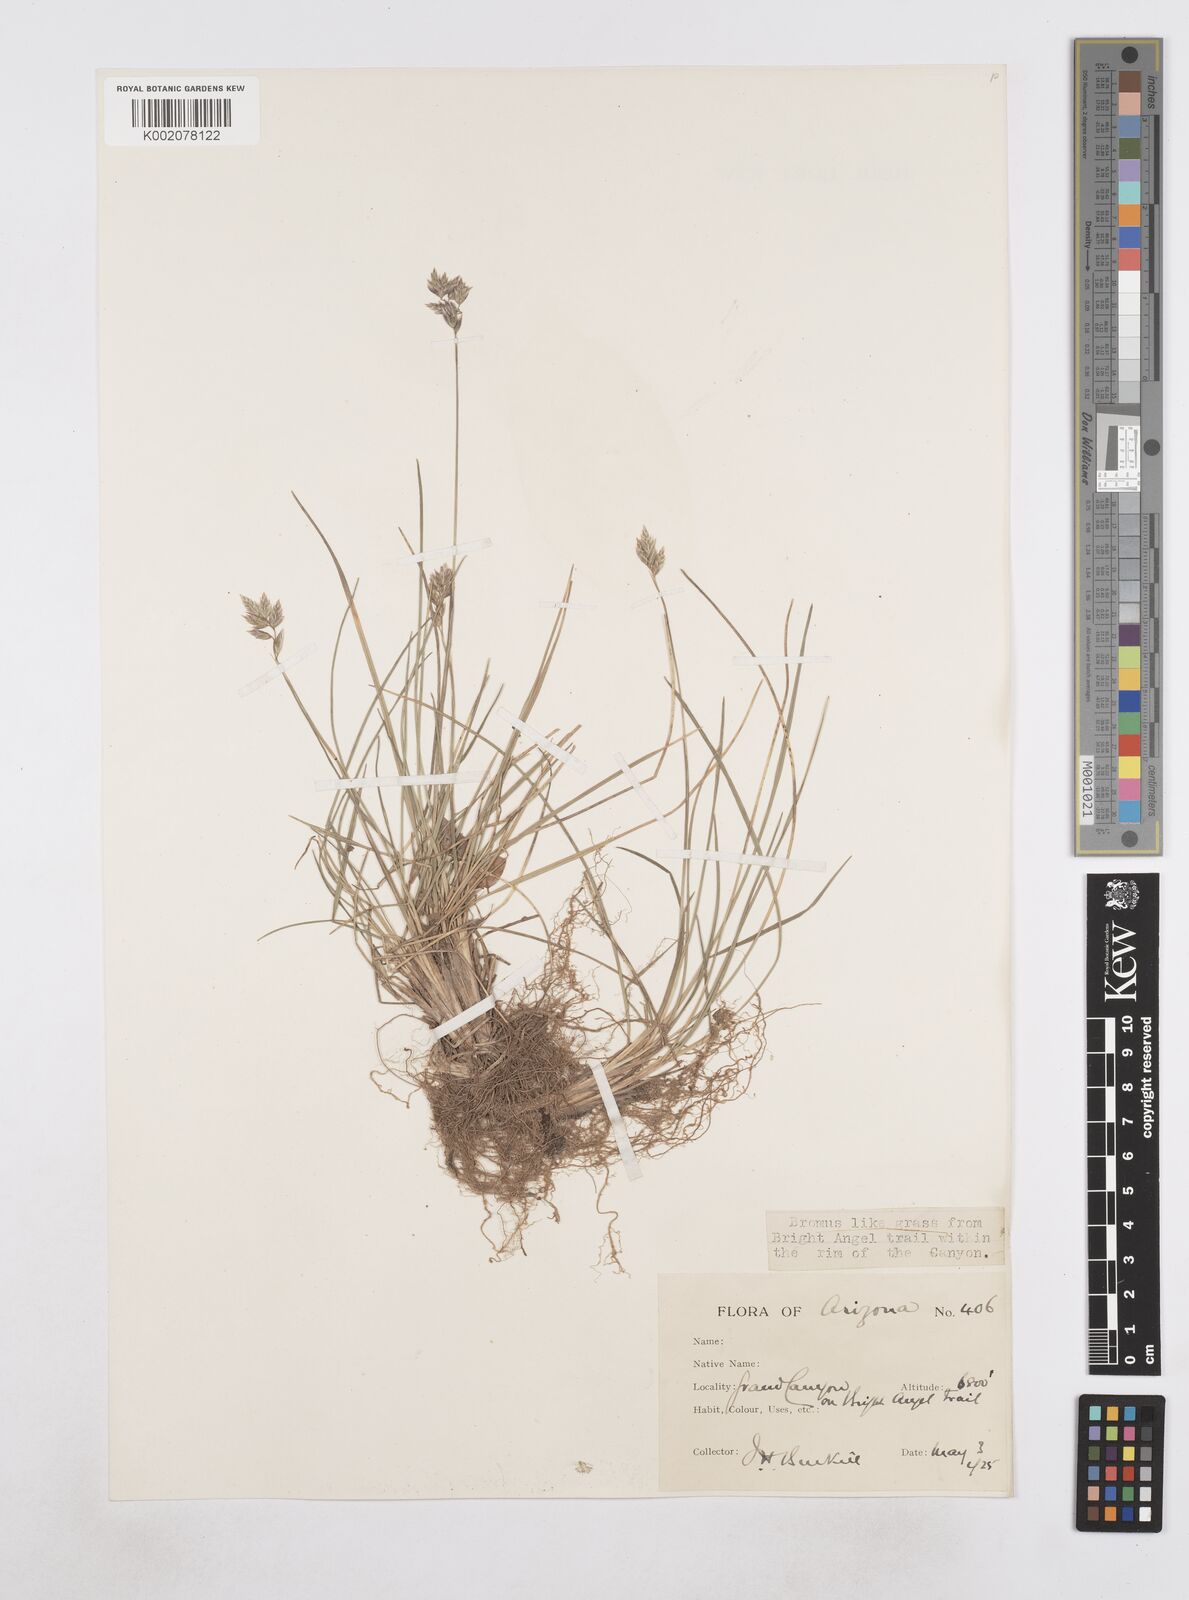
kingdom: Plantae
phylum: Tracheophyta
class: Liliopsida
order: Poales
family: Poaceae
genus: Poa
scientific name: Poa
